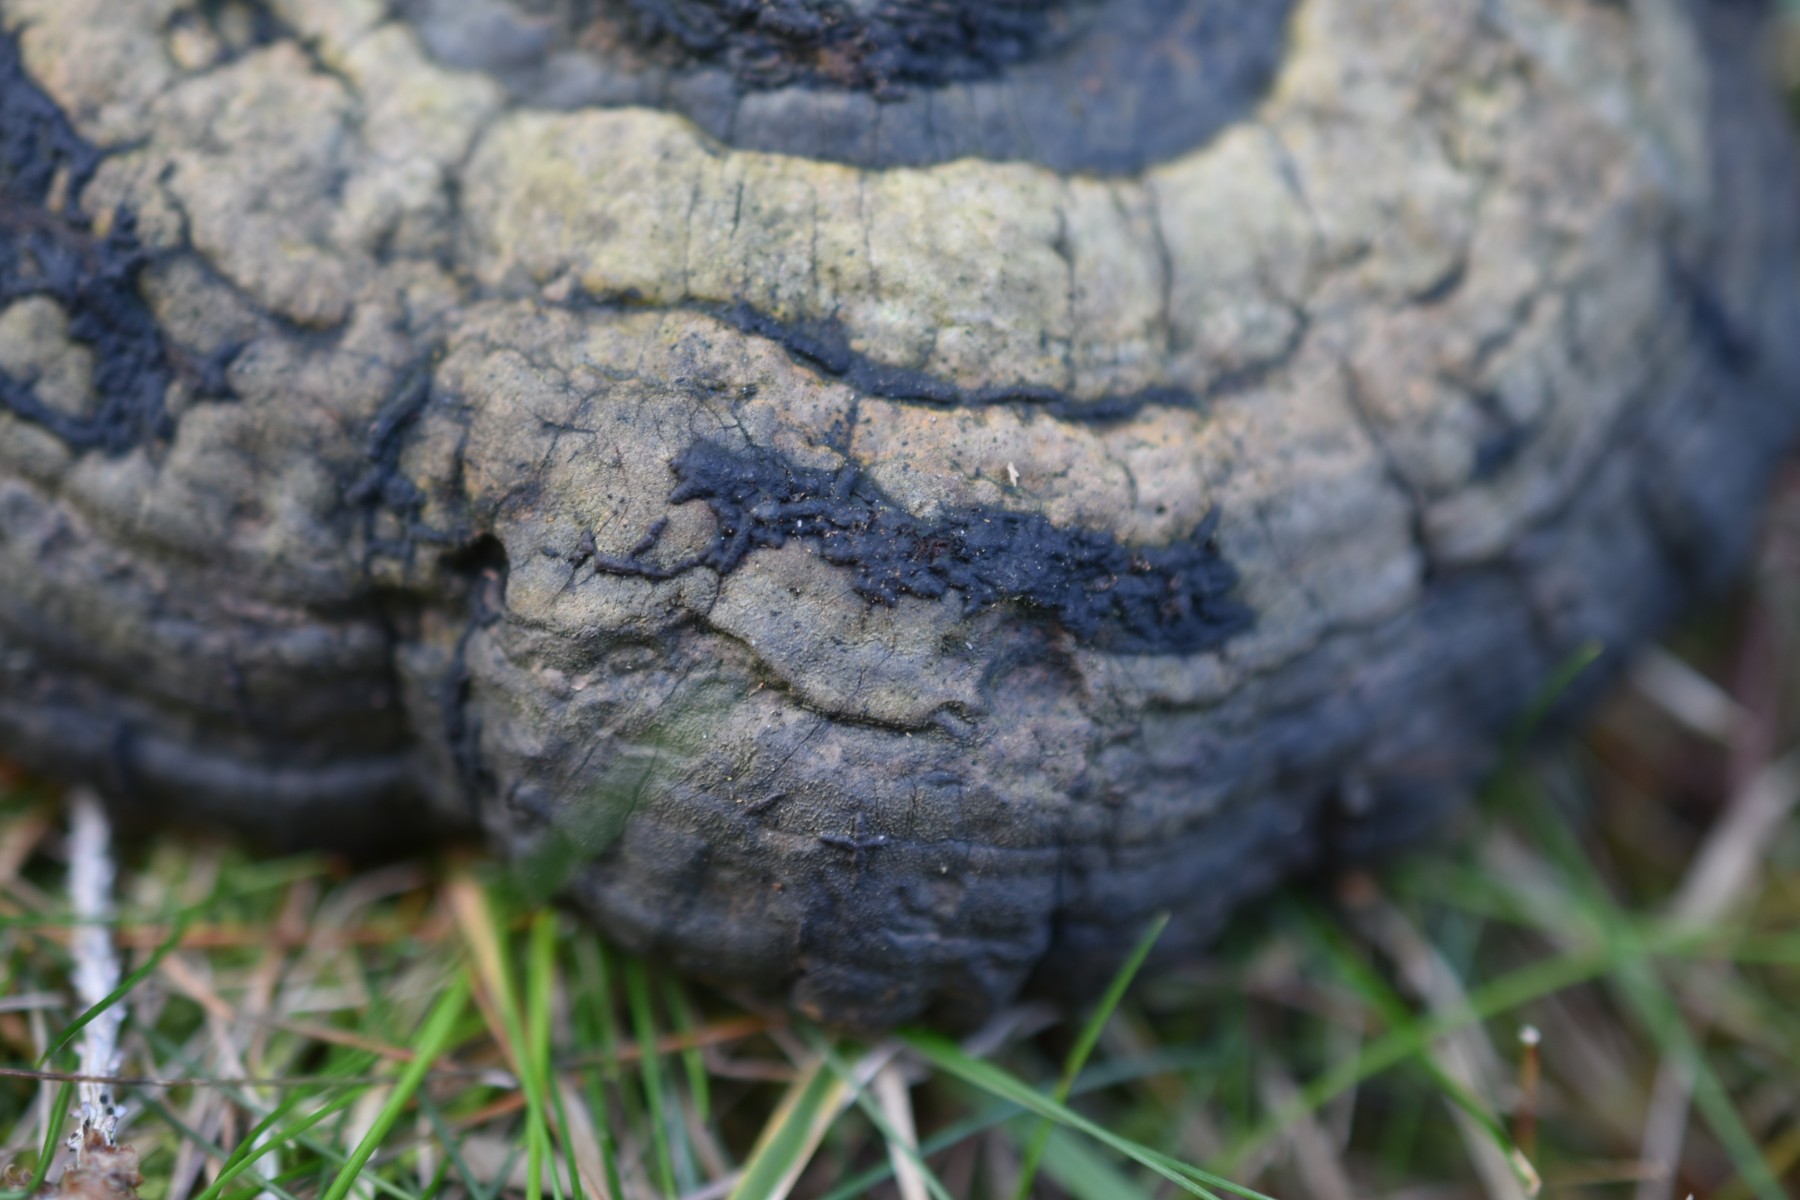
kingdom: Fungi
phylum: Ascomycota
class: Sordariomycetes
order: Xylariales
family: Xylariaceae
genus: Nemania
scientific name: Nemania serpens
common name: hovpore-kuldyne
